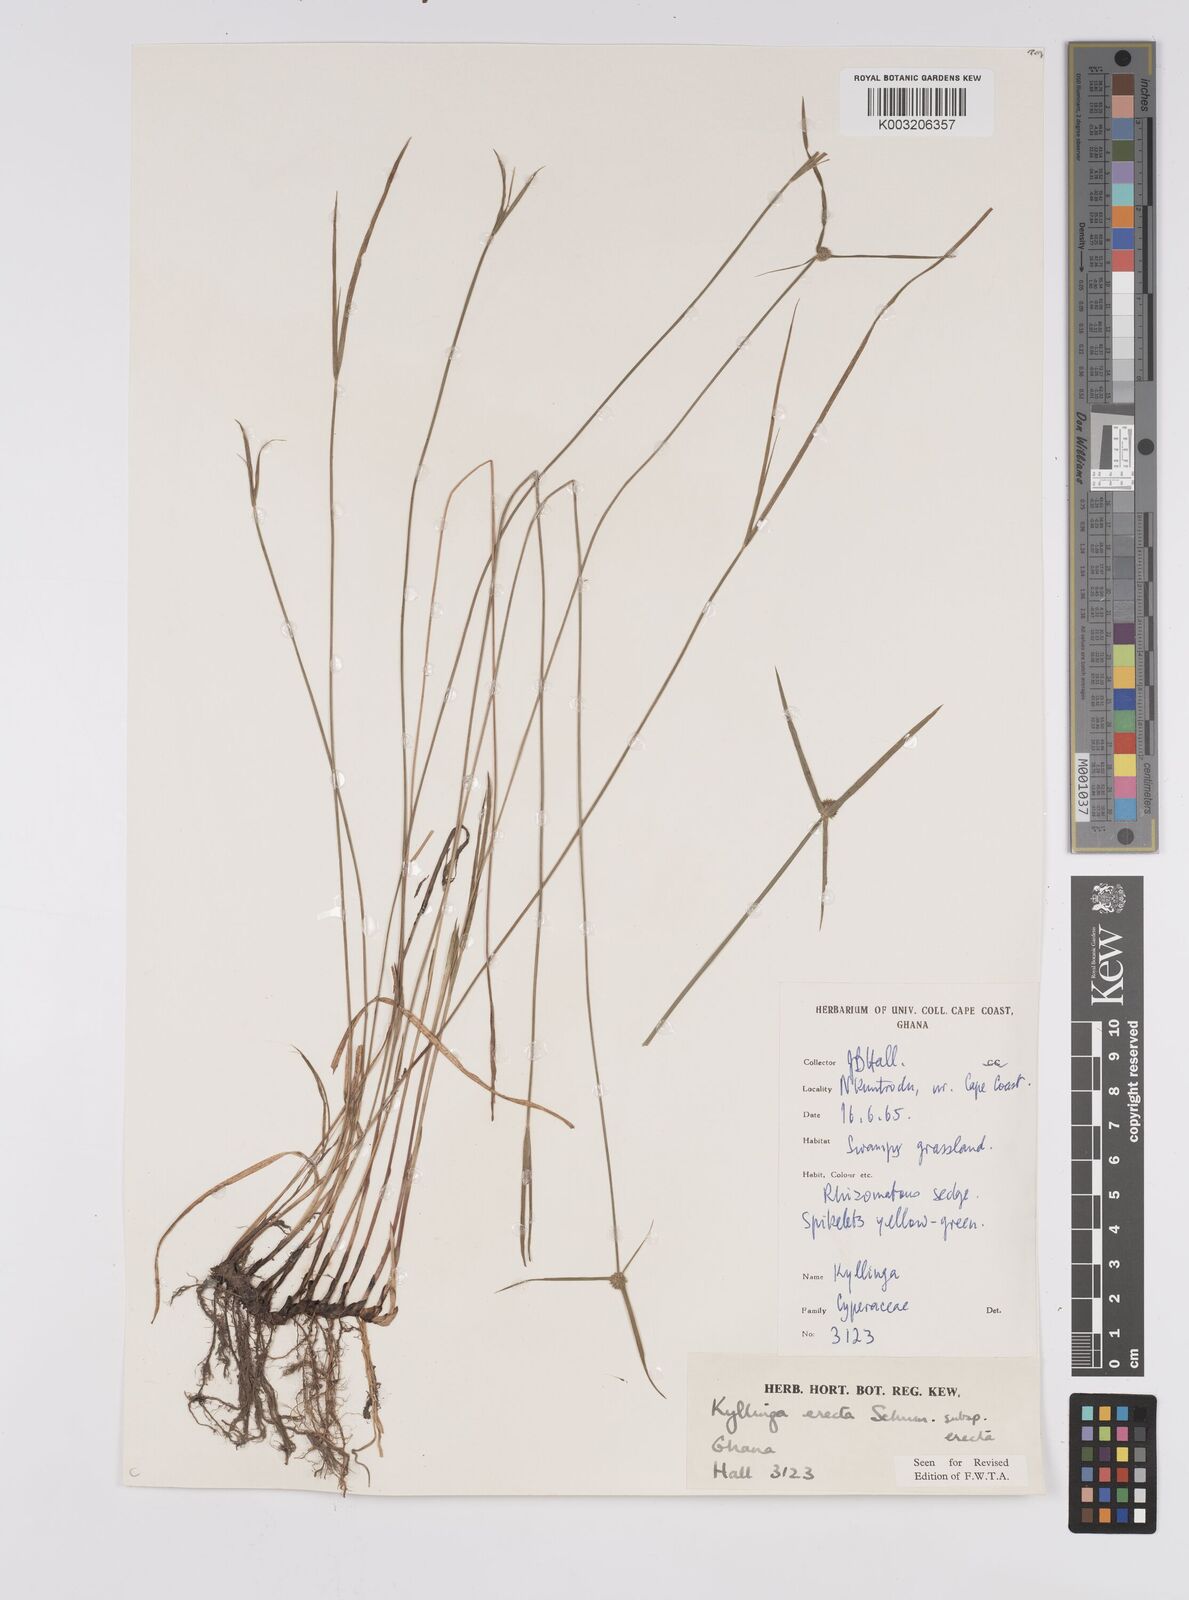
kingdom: Plantae
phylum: Tracheophyta
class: Liliopsida
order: Poales
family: Cyperaceae
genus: Cyperus
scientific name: Cyperus erectus
